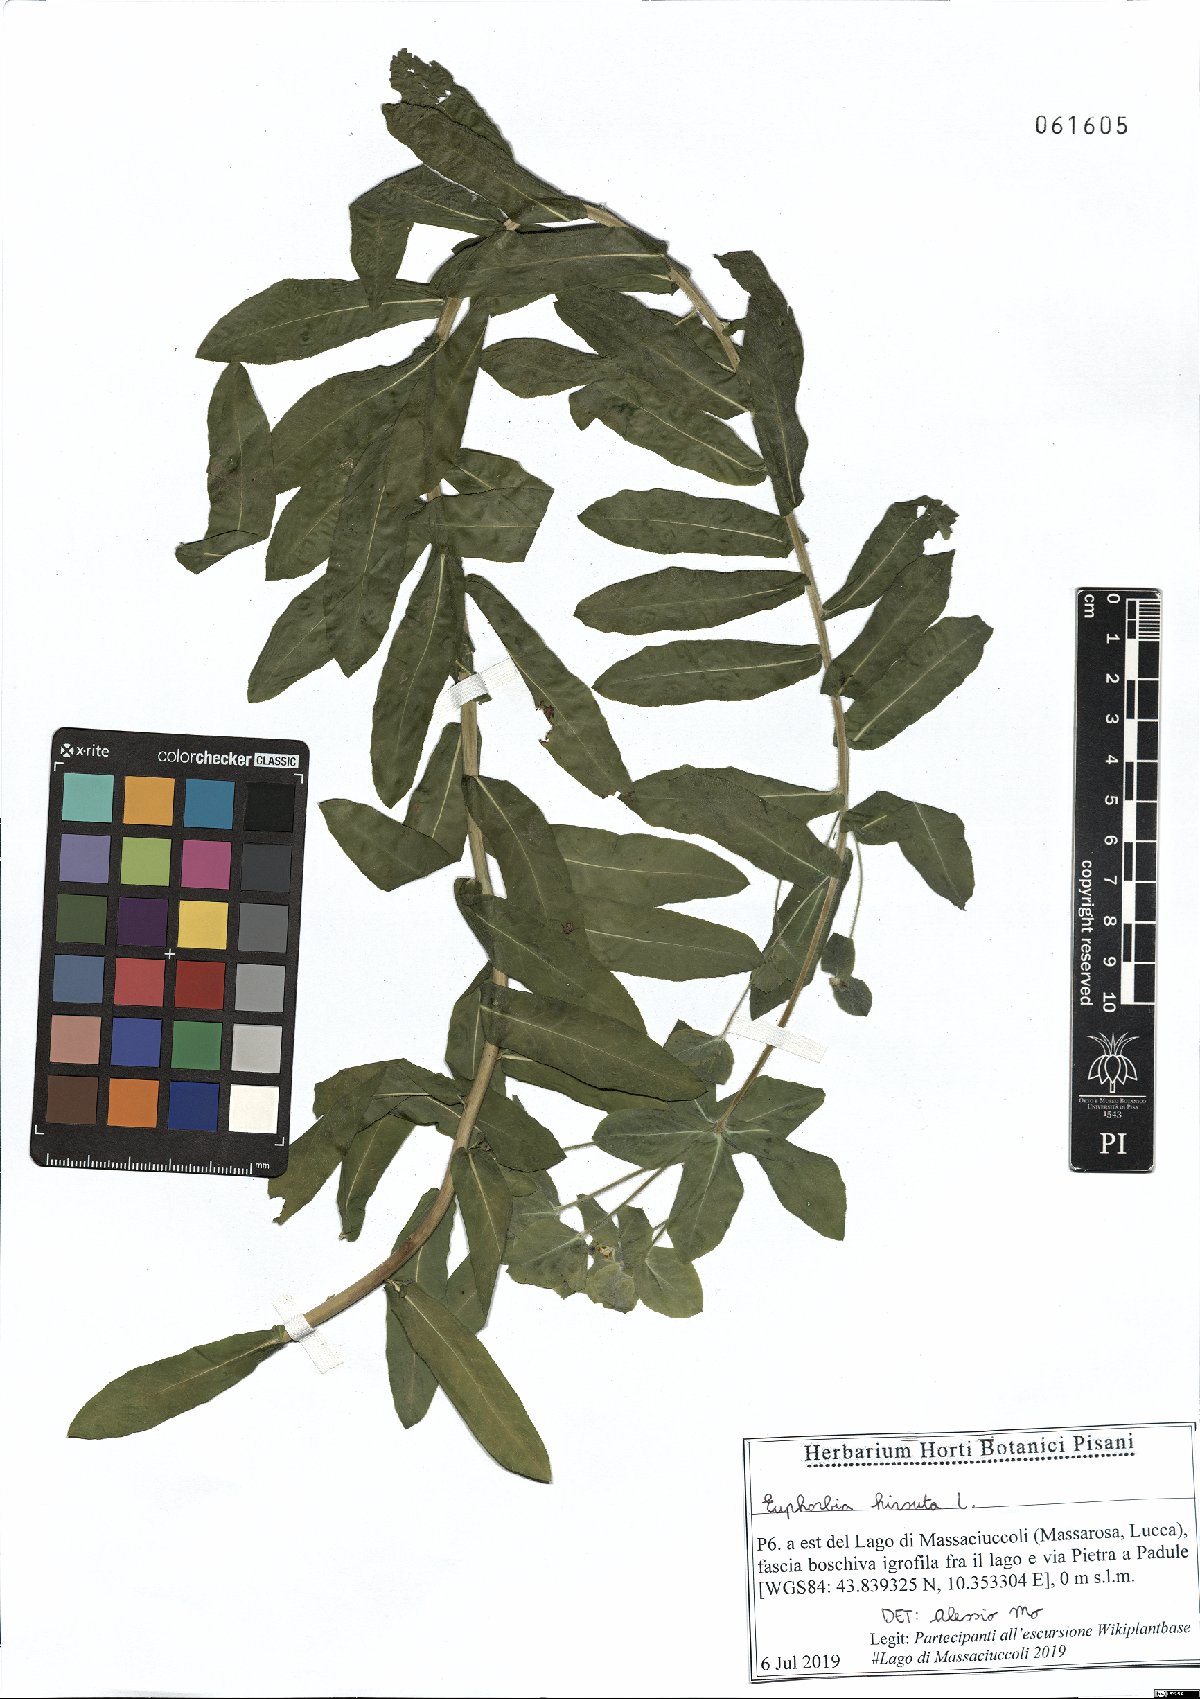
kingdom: Plantae
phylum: Tracheophyta
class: Magnoliopsida
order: Malpighiales
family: Euphorbiaceae
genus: Euphorbia
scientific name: Euphorbia hirsuta
